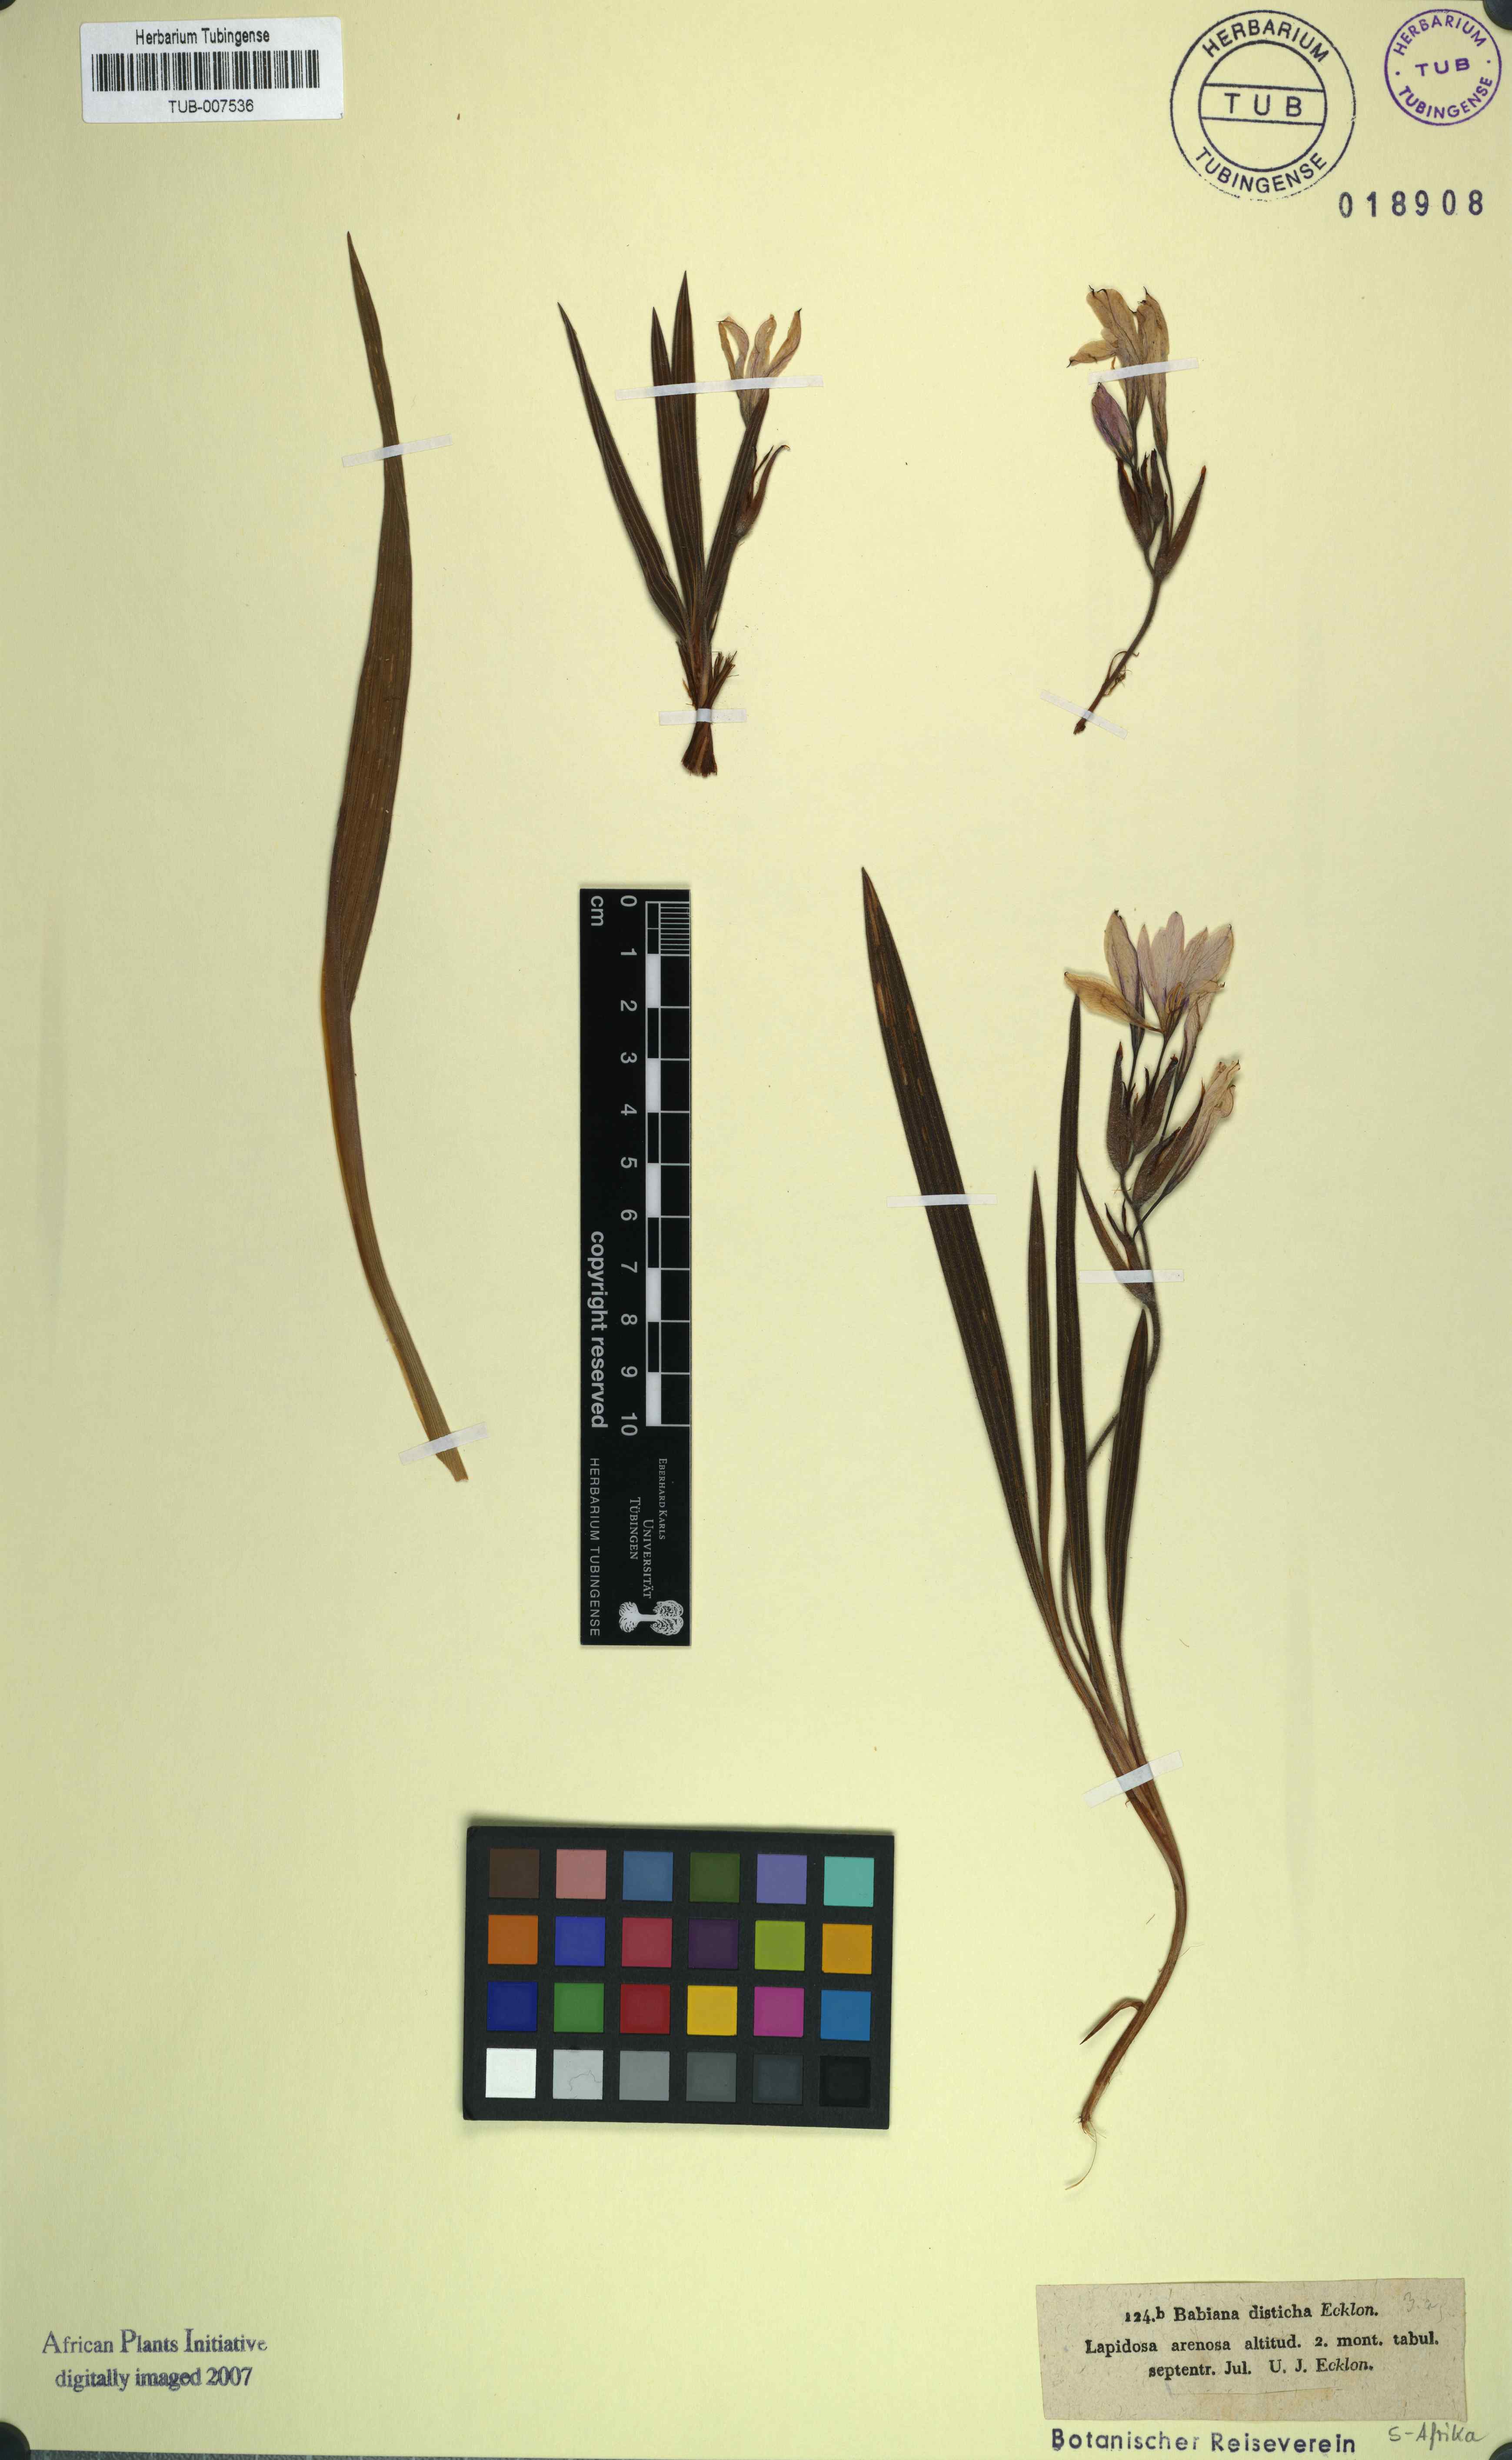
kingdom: Plantae
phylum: Tracheophyta
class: Liliopsida
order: Asparagales
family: Iridaceae
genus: Babiana
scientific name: Babiana fragrans
